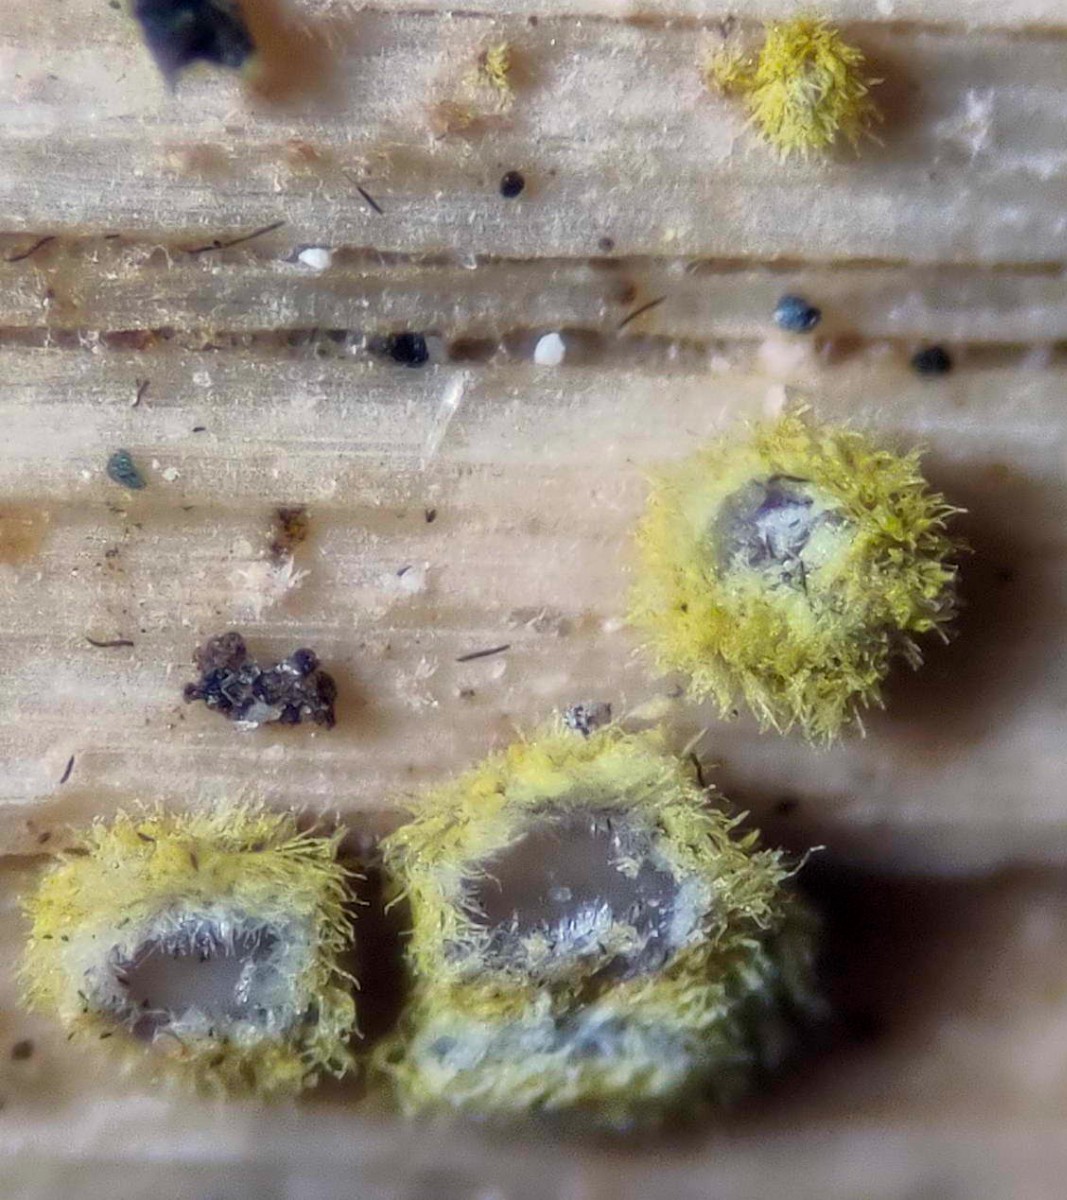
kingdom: Fungi
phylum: Ascomycota
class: Leotiomycetes
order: Helotiales
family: Lachnaceae
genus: Trichopeziza
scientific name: Trichopeziza
